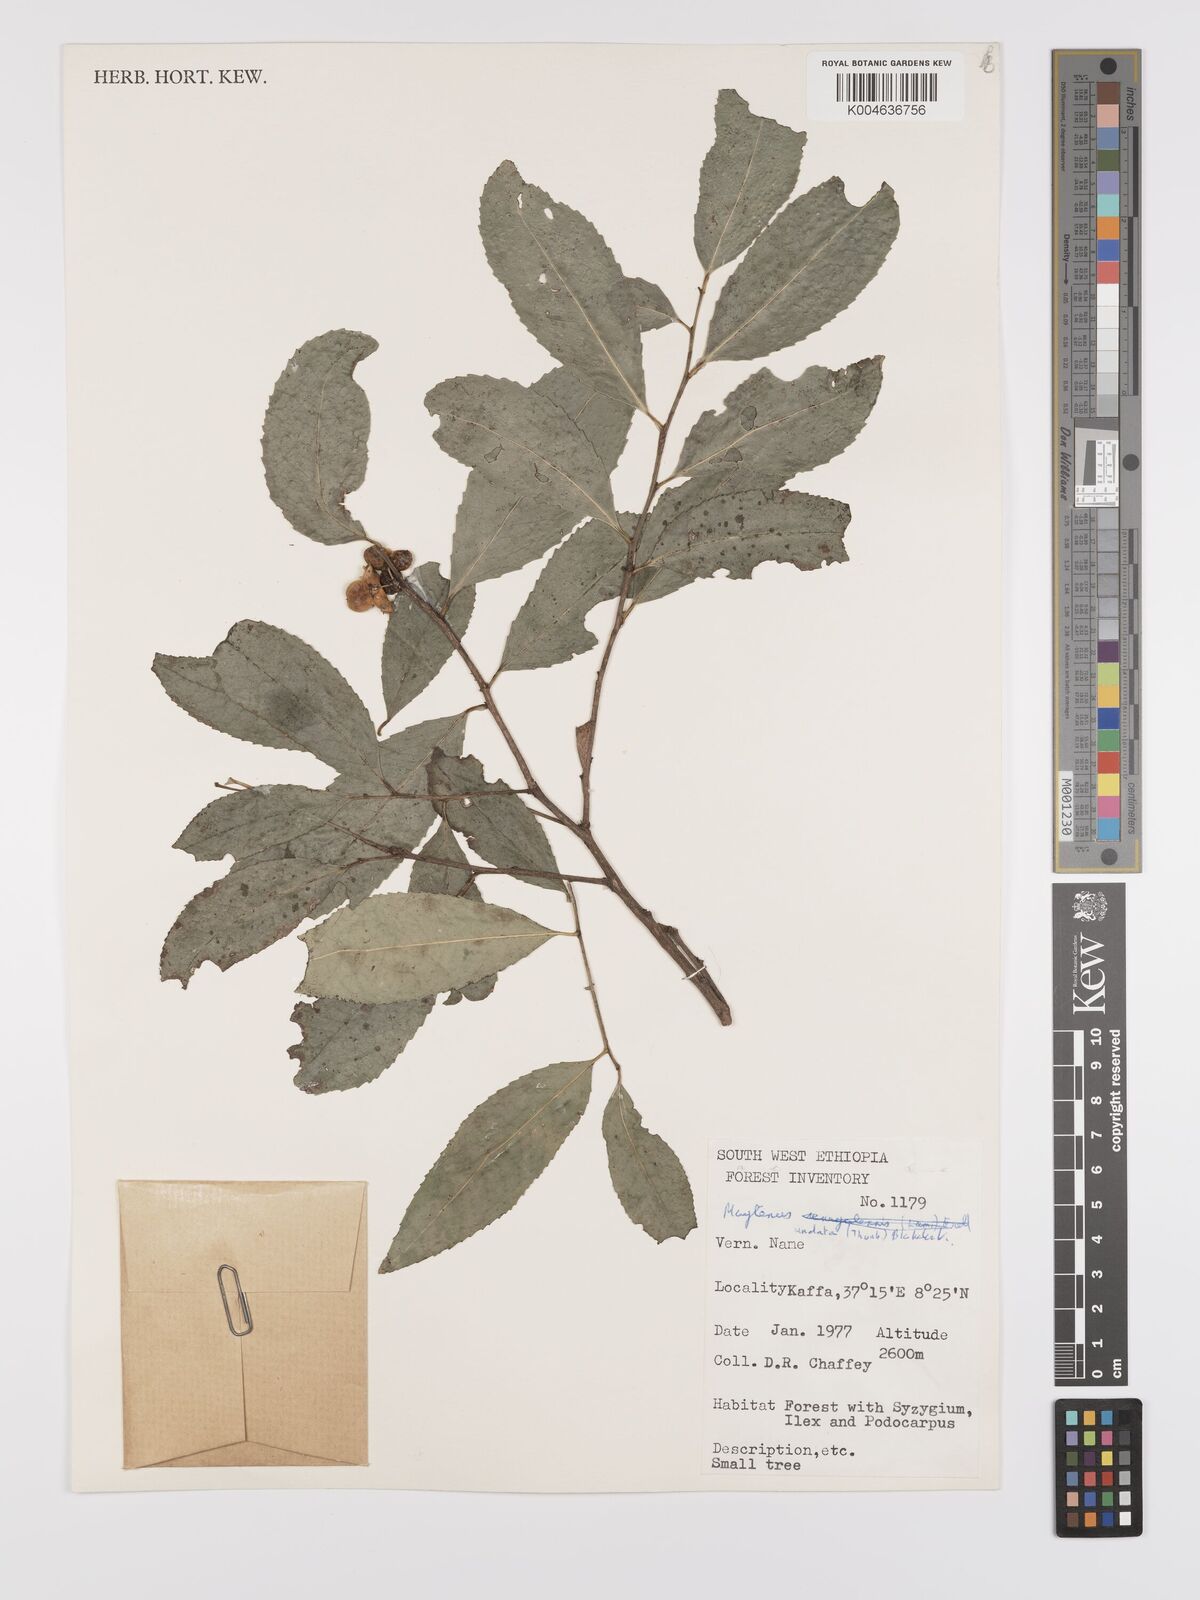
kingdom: Plantae
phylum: Tracheophyta
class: Magnoliopsida
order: Celastrales
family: Celastraceae
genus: Gymnosporia
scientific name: Gymnosporia undata
